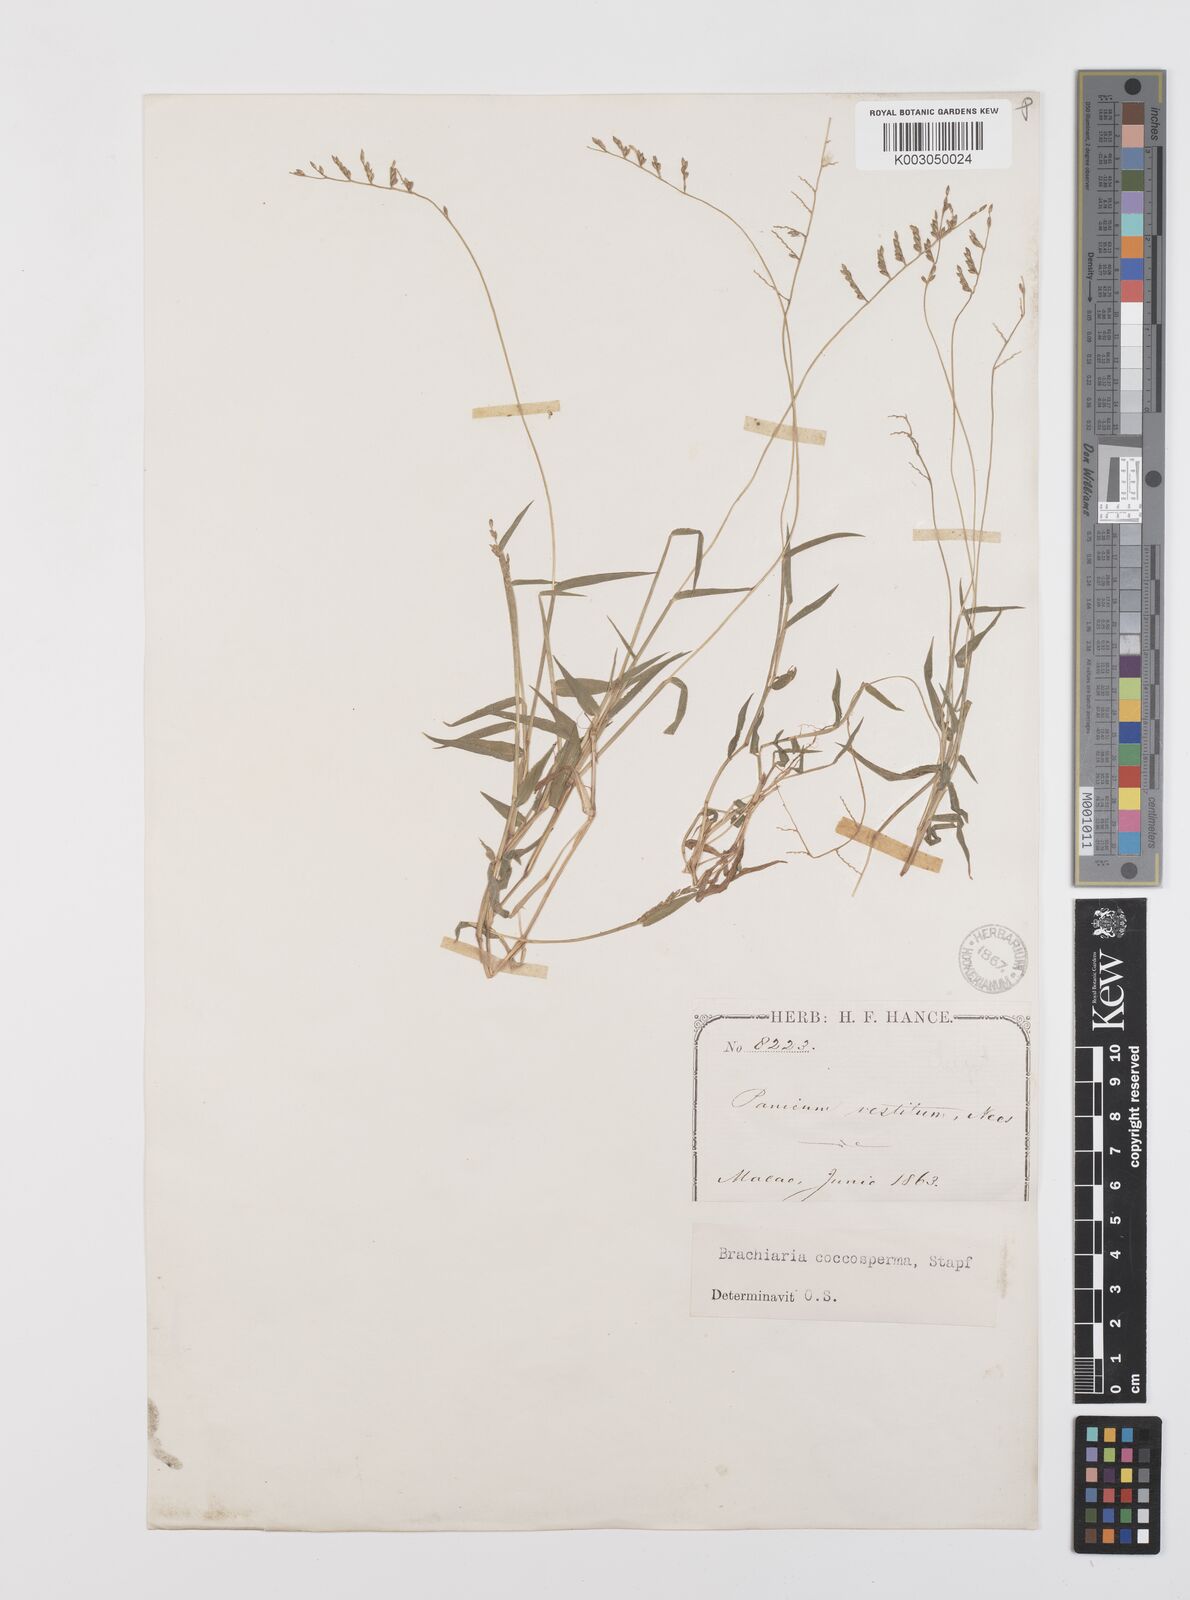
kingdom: Plantae
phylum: Tracheophyta
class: Liliopsida
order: Poales
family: Poaceae
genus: Urochloa
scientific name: Urochloa villosa
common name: Hairy signalgrass
